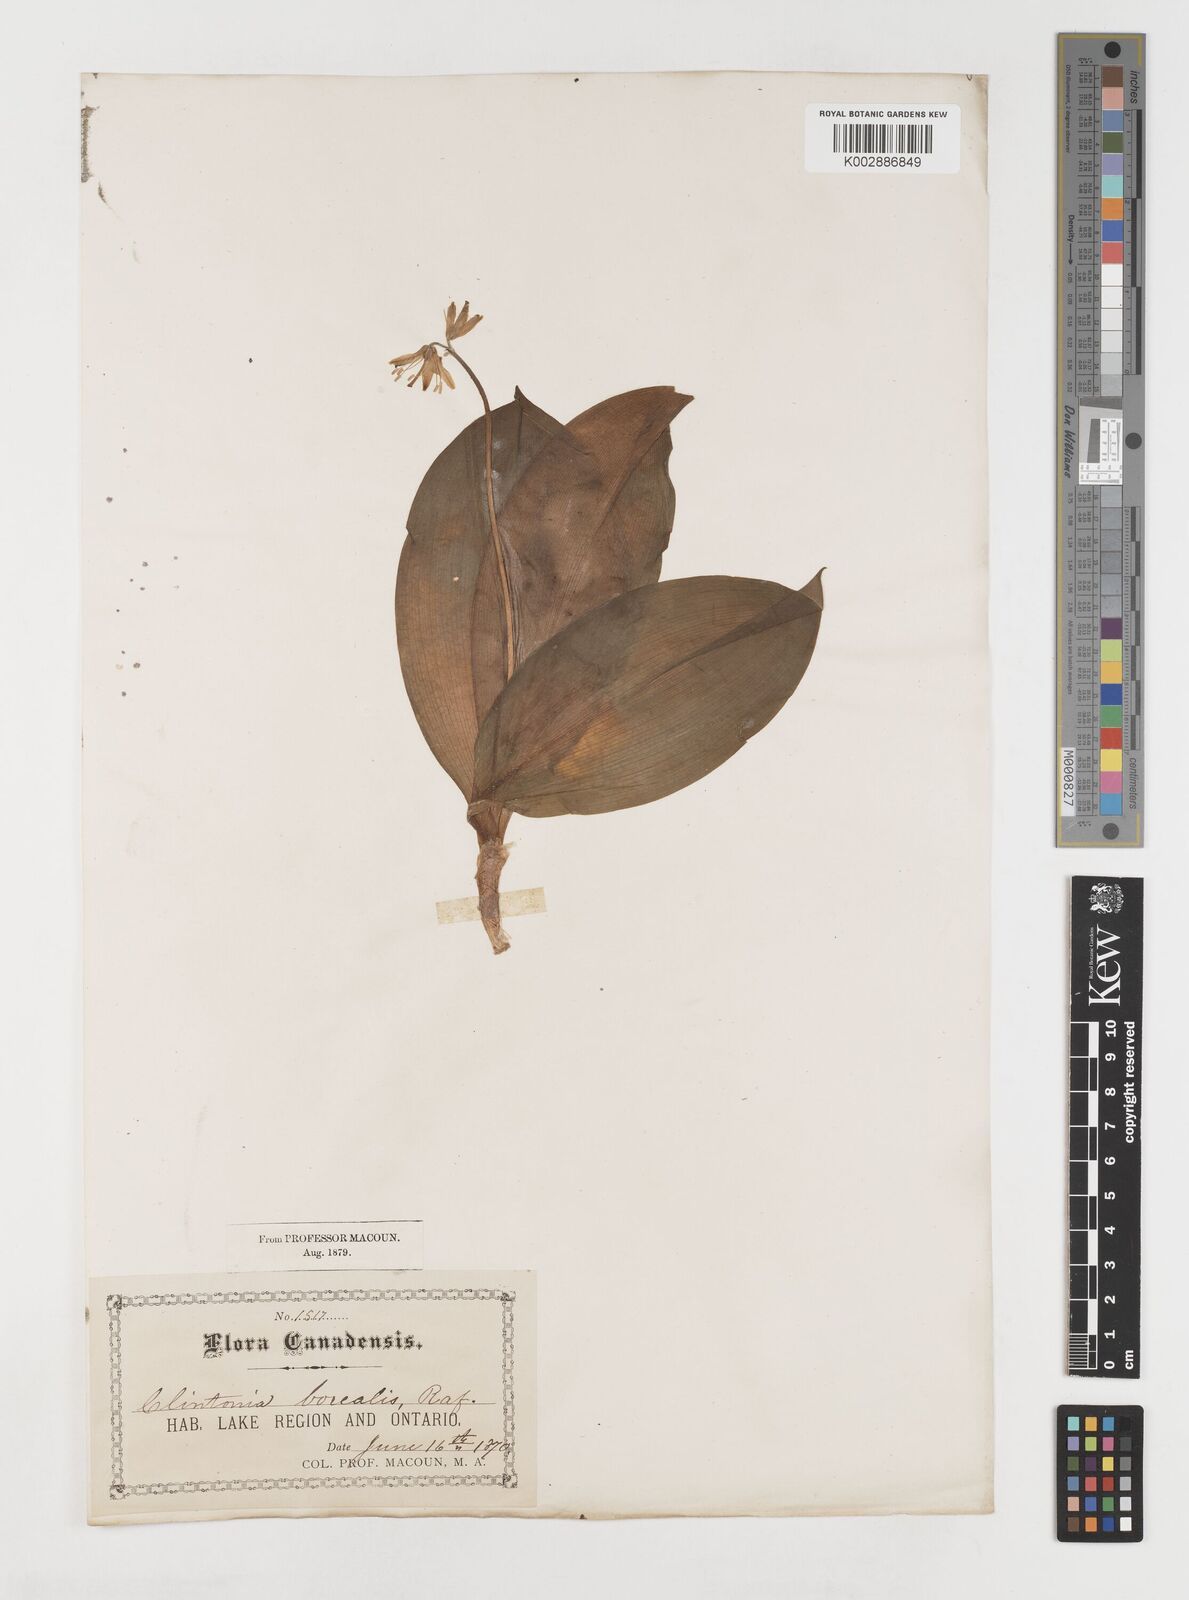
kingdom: Plantae
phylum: Tracheophyta
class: Liliopsida
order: Liliales
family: Liliaceae
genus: Clintonia
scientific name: Clintonia borealis
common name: Yellow clintonia
